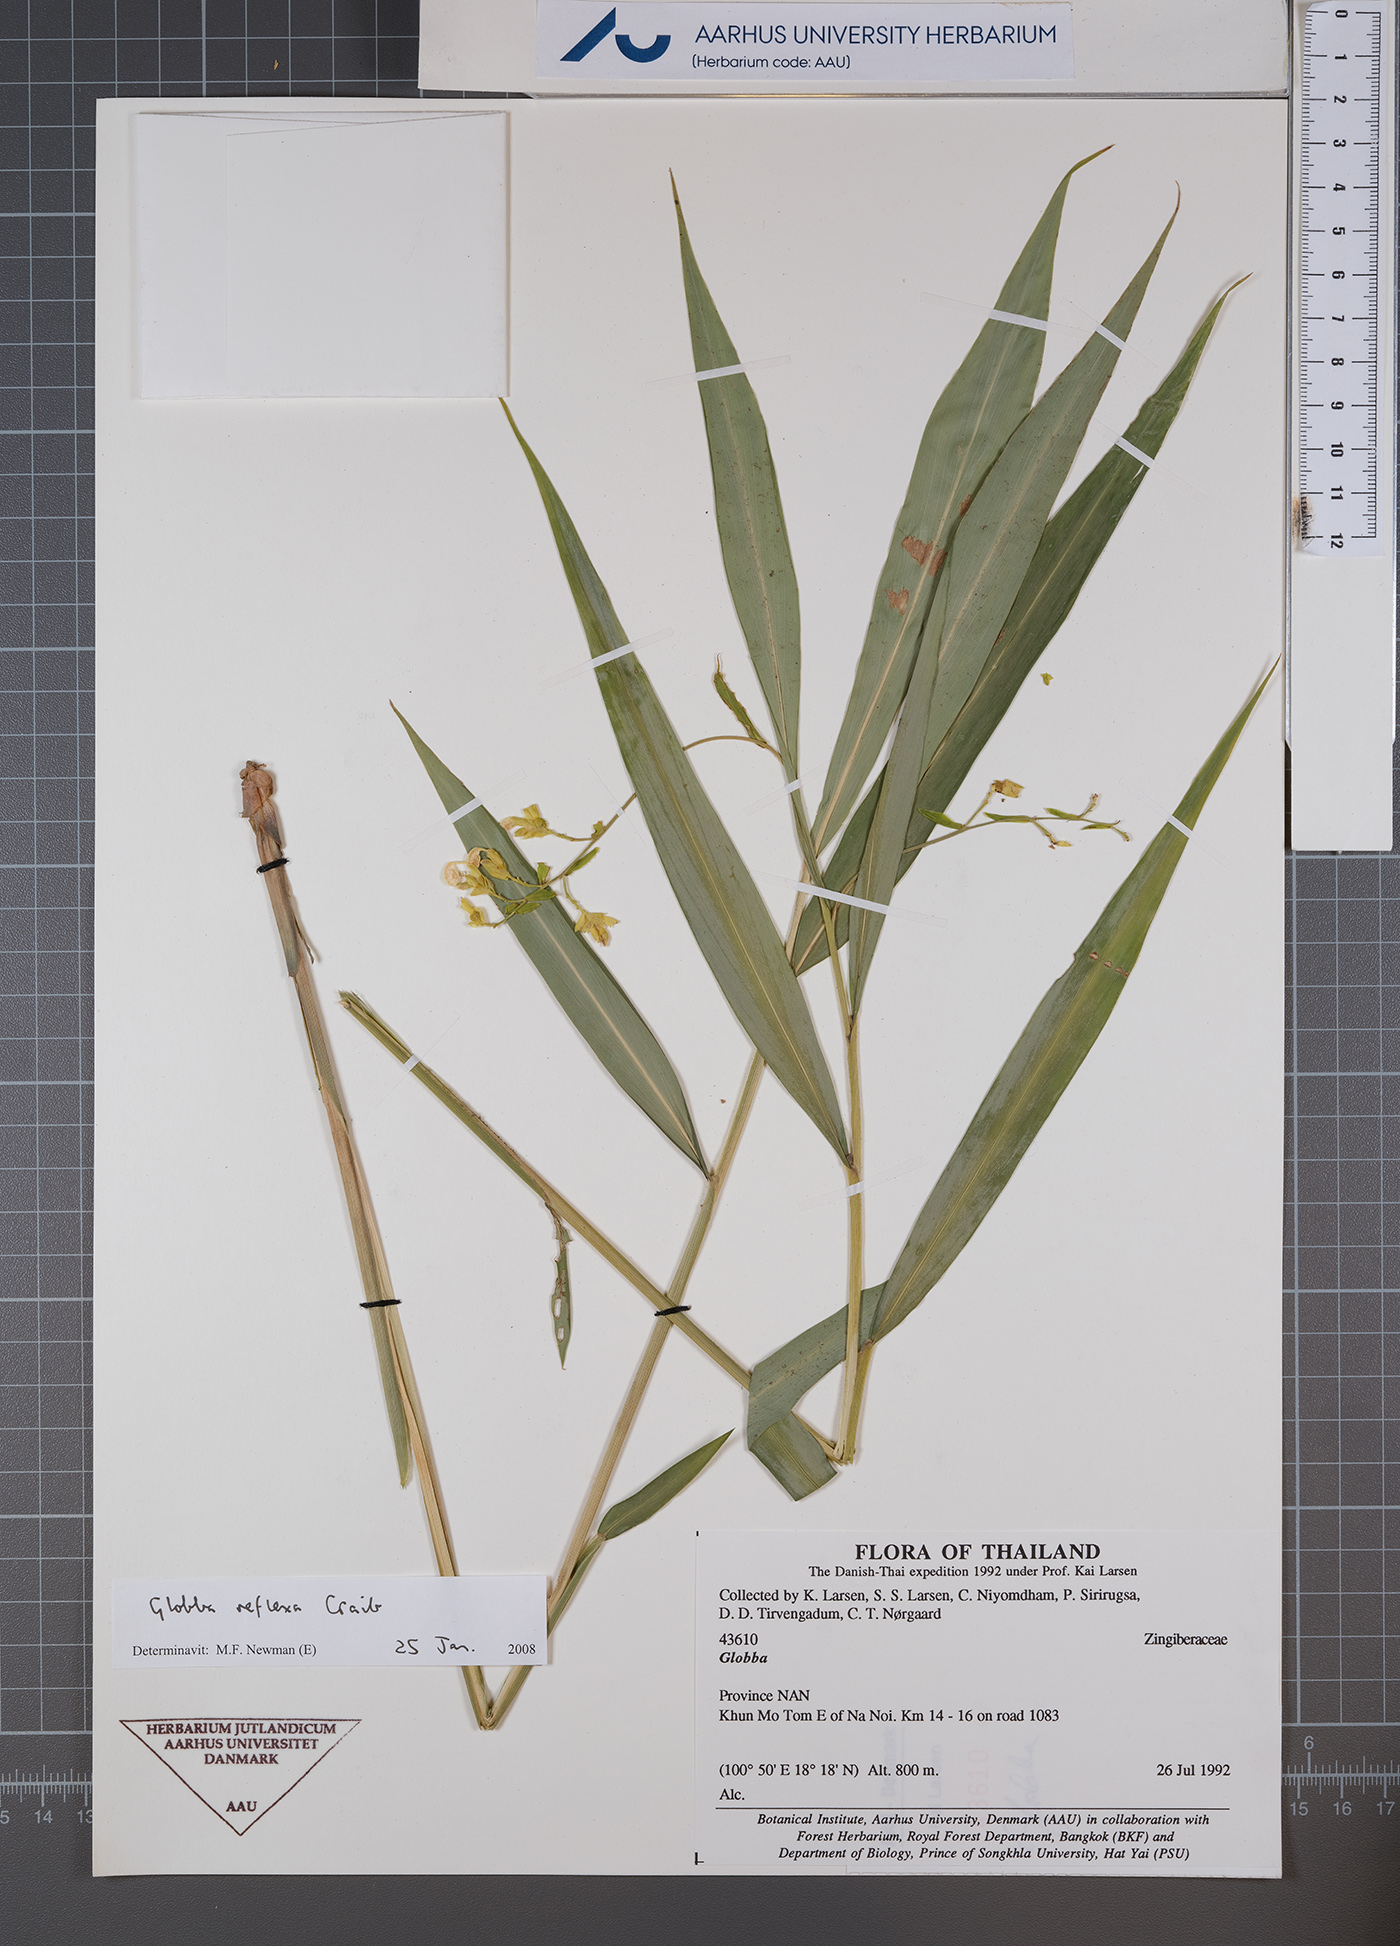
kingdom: Plantae
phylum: Tracheophyta
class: Liliopsida
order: Zingiberales
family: Zingiberaceae
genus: Globba
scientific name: Globba reflexa
